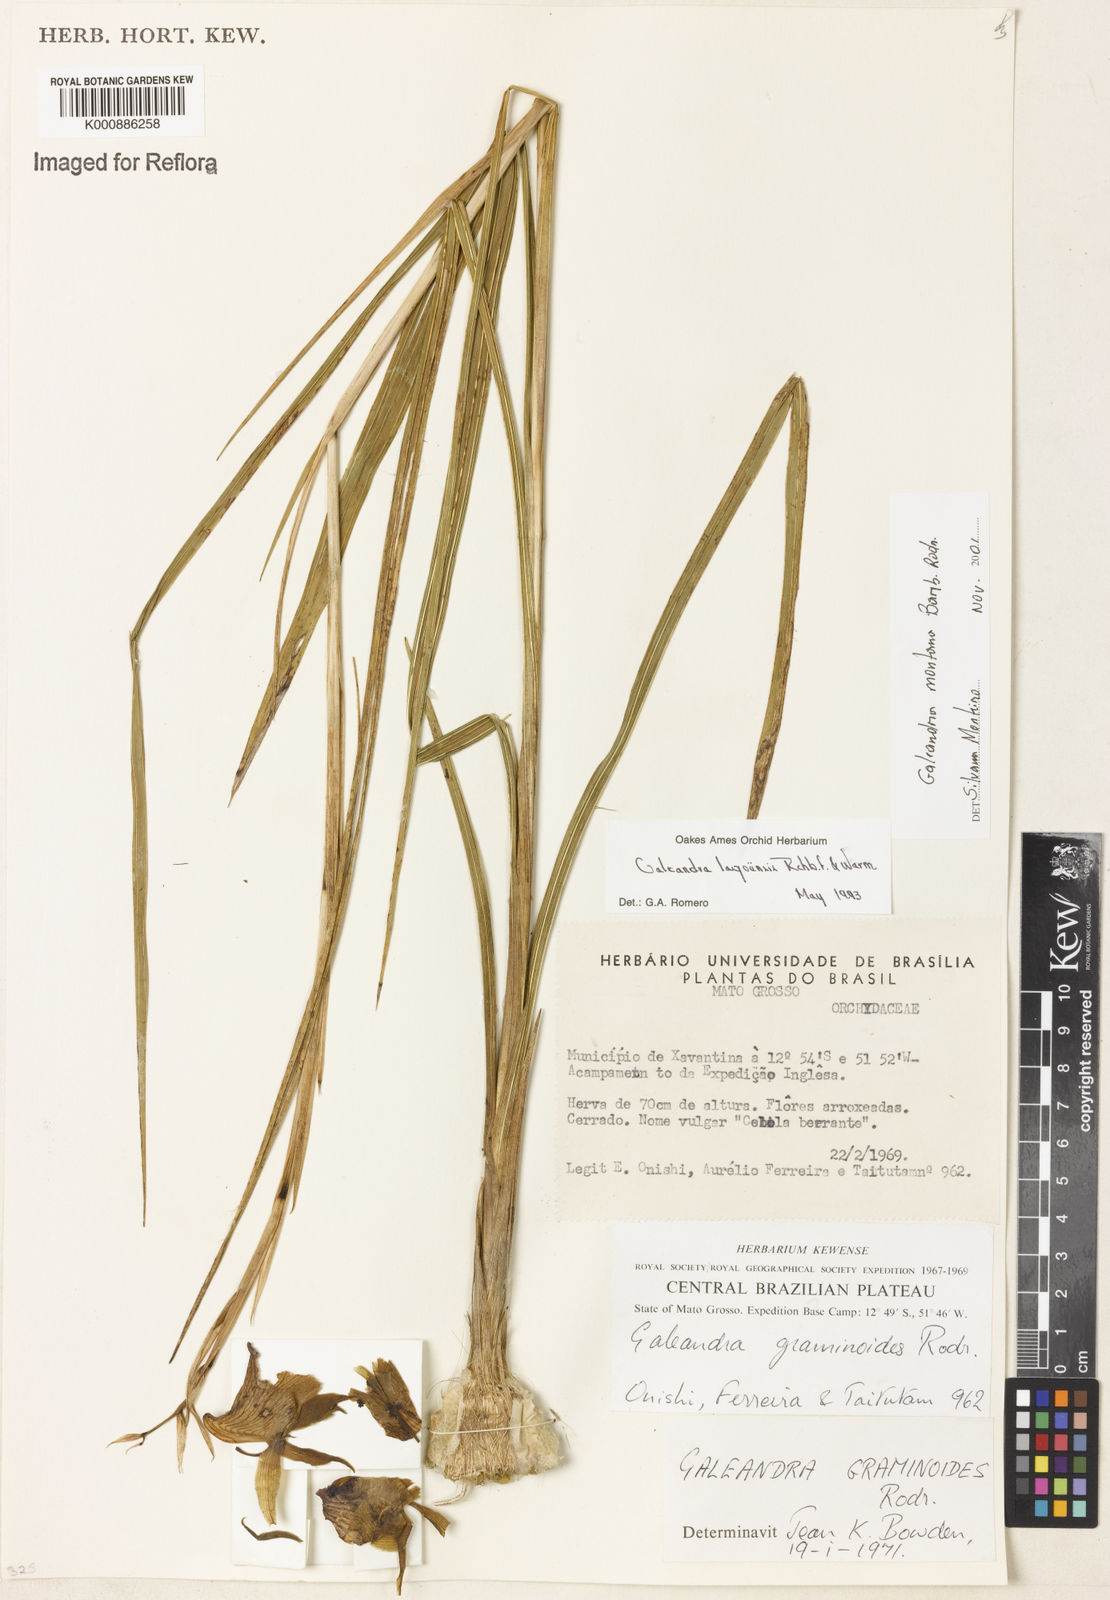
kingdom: Plantae
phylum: Tracheophyta
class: Liliopsida
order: Asparagales
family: Orchidaceae
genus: Galeandra
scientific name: Galeandra montana
